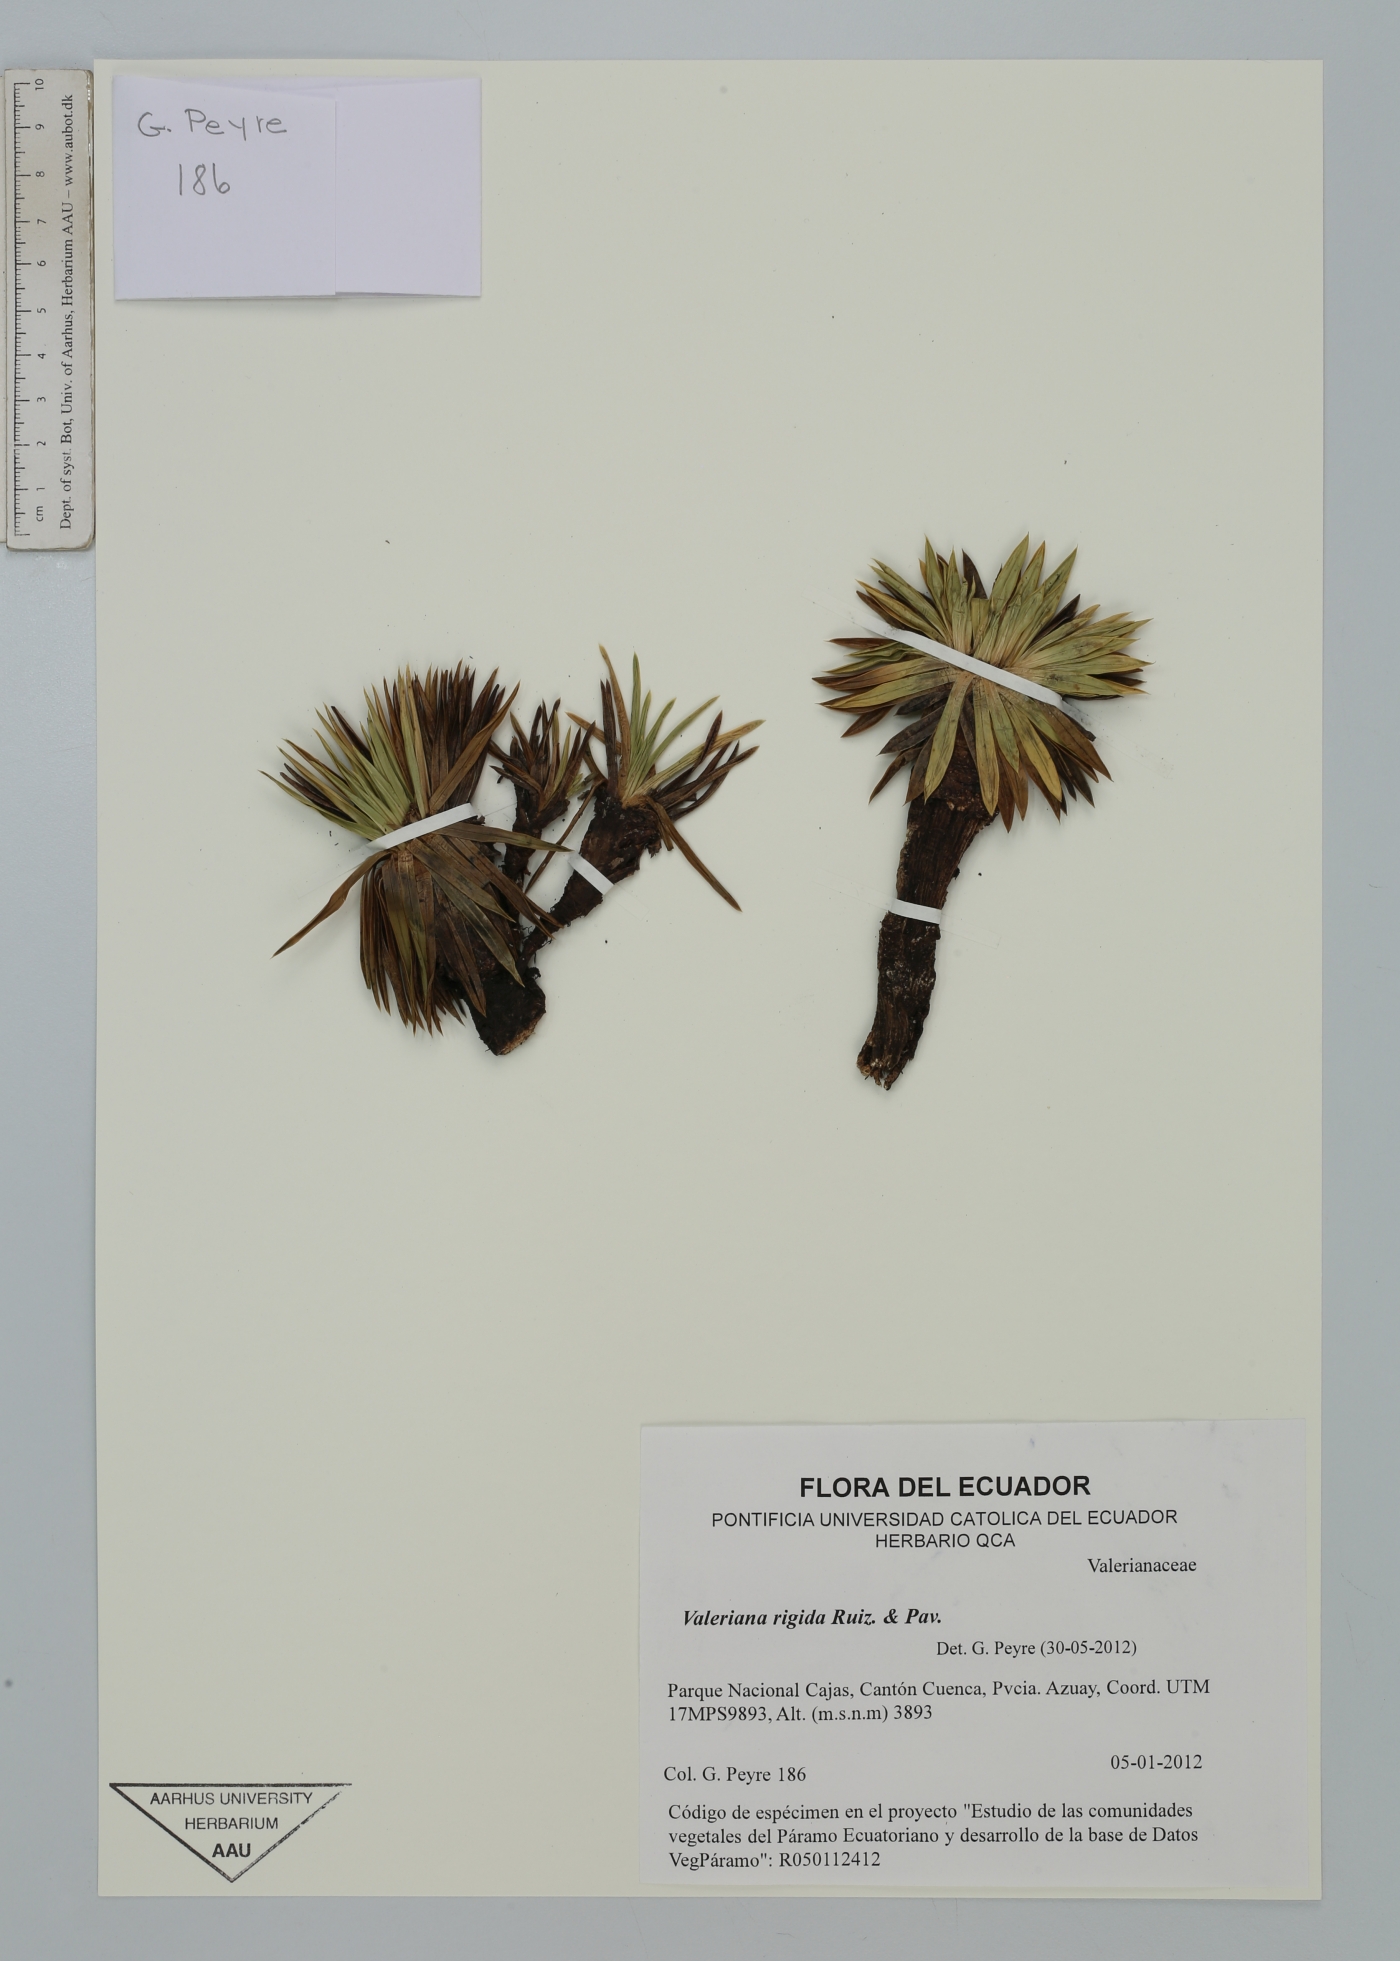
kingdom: Plantae
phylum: Tracheophyta
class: Magnoliopsida
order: Dipsacales
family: Caprifoliaceae
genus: Valeriana
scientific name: Valeriana rigida
